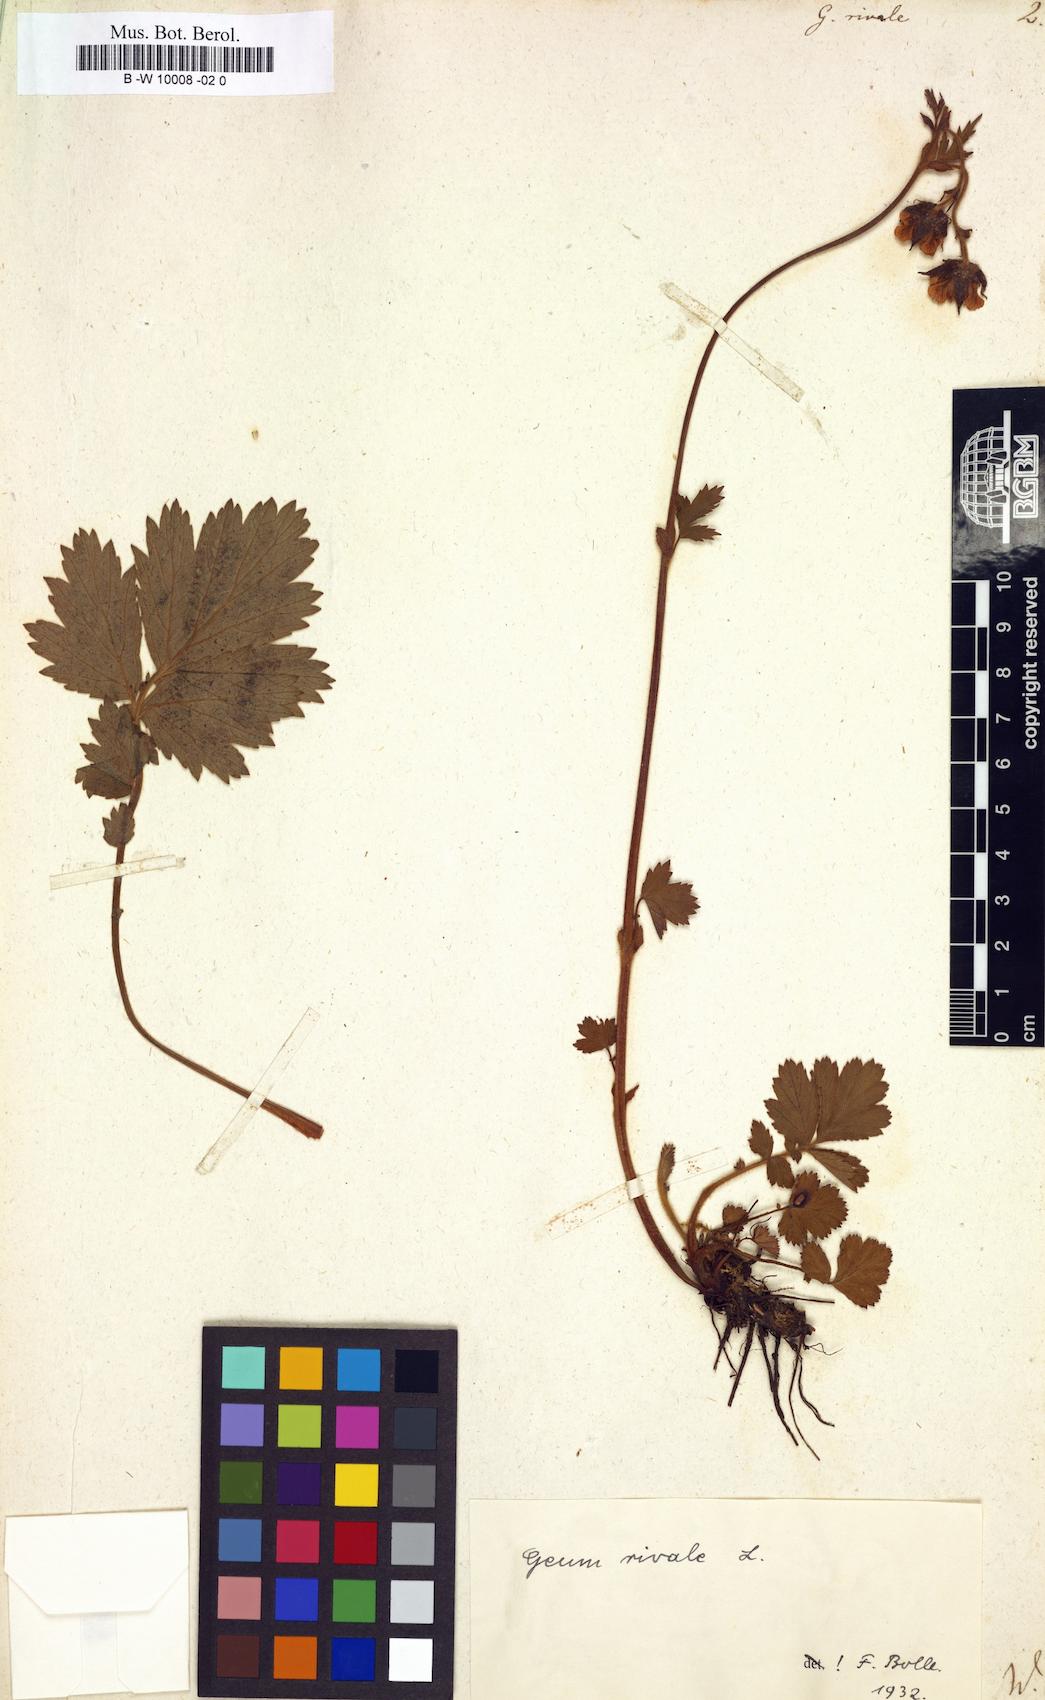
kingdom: Plantae
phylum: Tracheophyta
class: Magnoliopsida
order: Rosales
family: Rosaceae
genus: Geum
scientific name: Geum rivale
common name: Water avens
